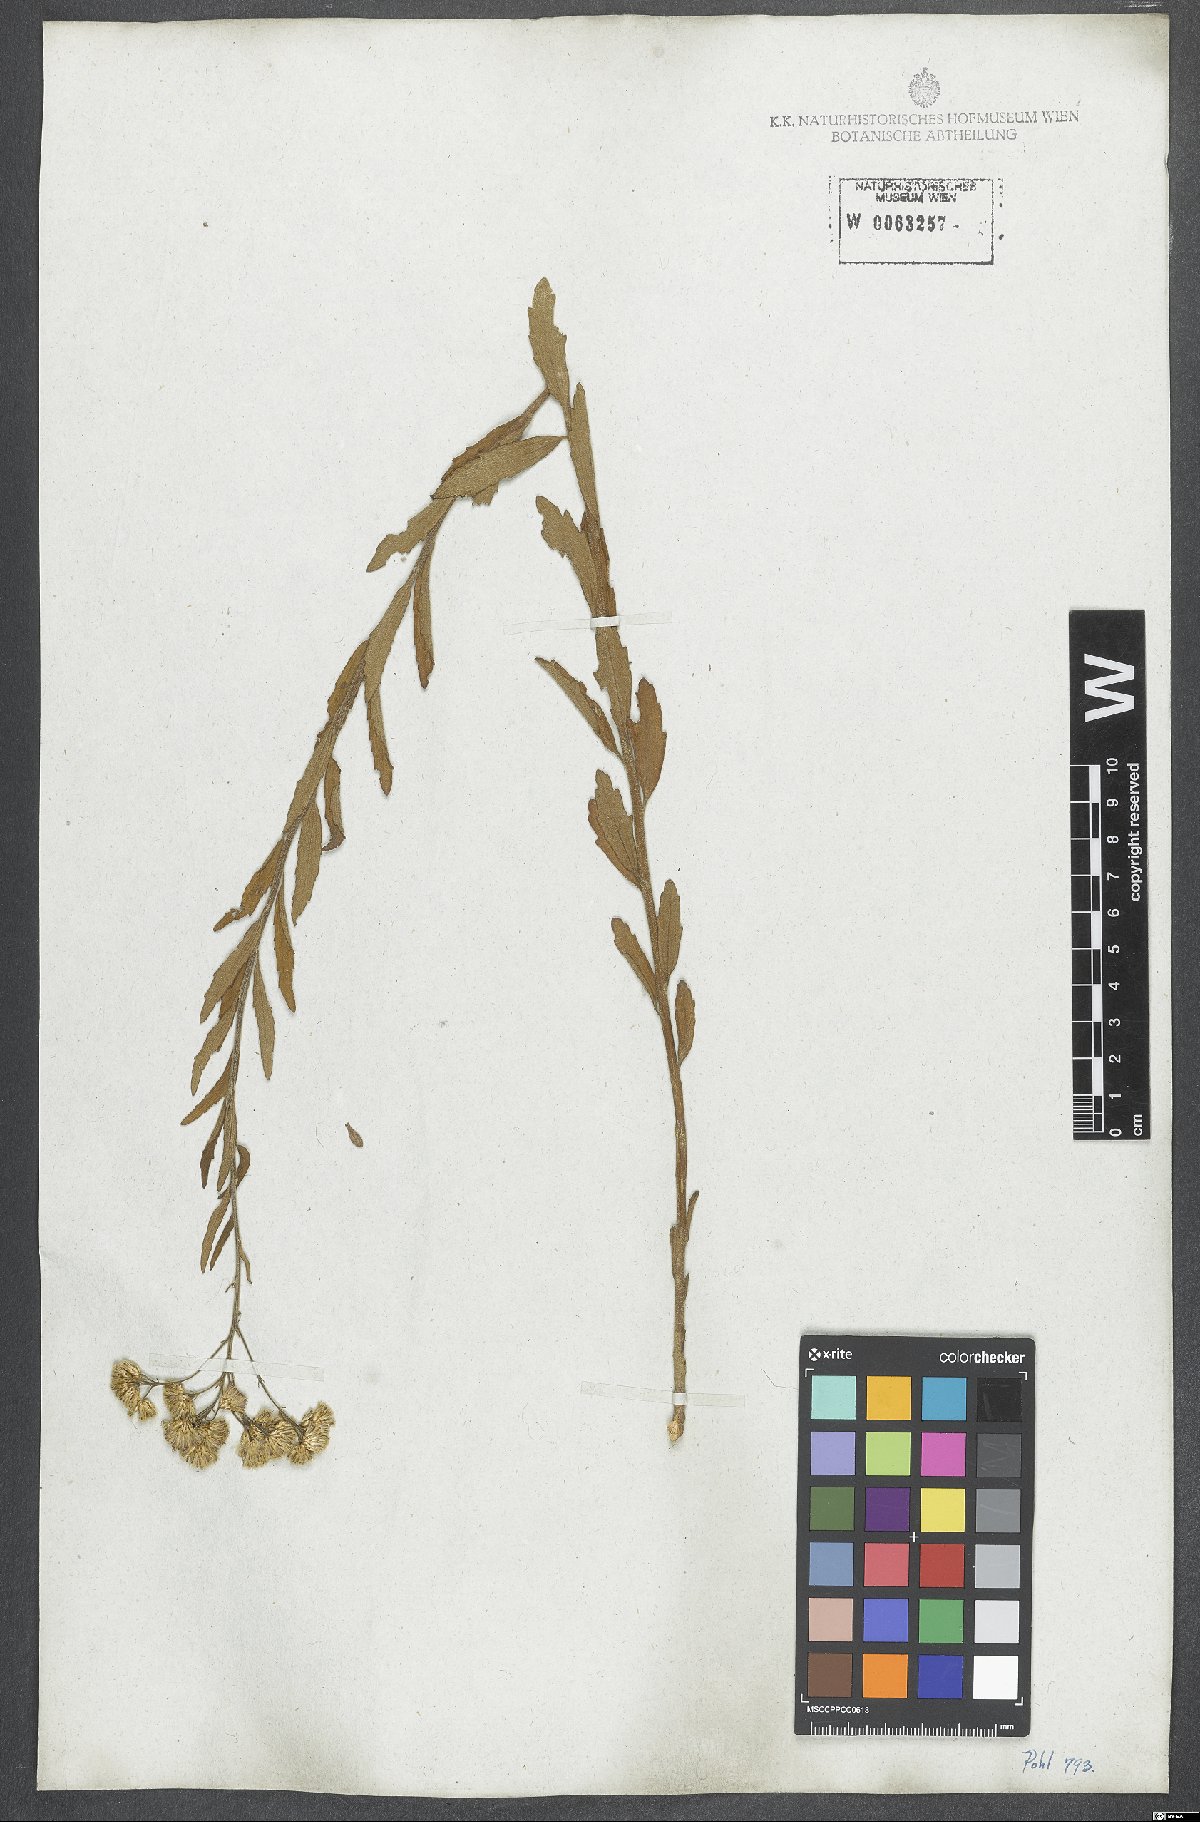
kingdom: Plantae
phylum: Tracheophyta
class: Magnoliopsida
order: Asterales
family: Asteraceae
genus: Chromolaena
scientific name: Chromolaena stachyophylla
